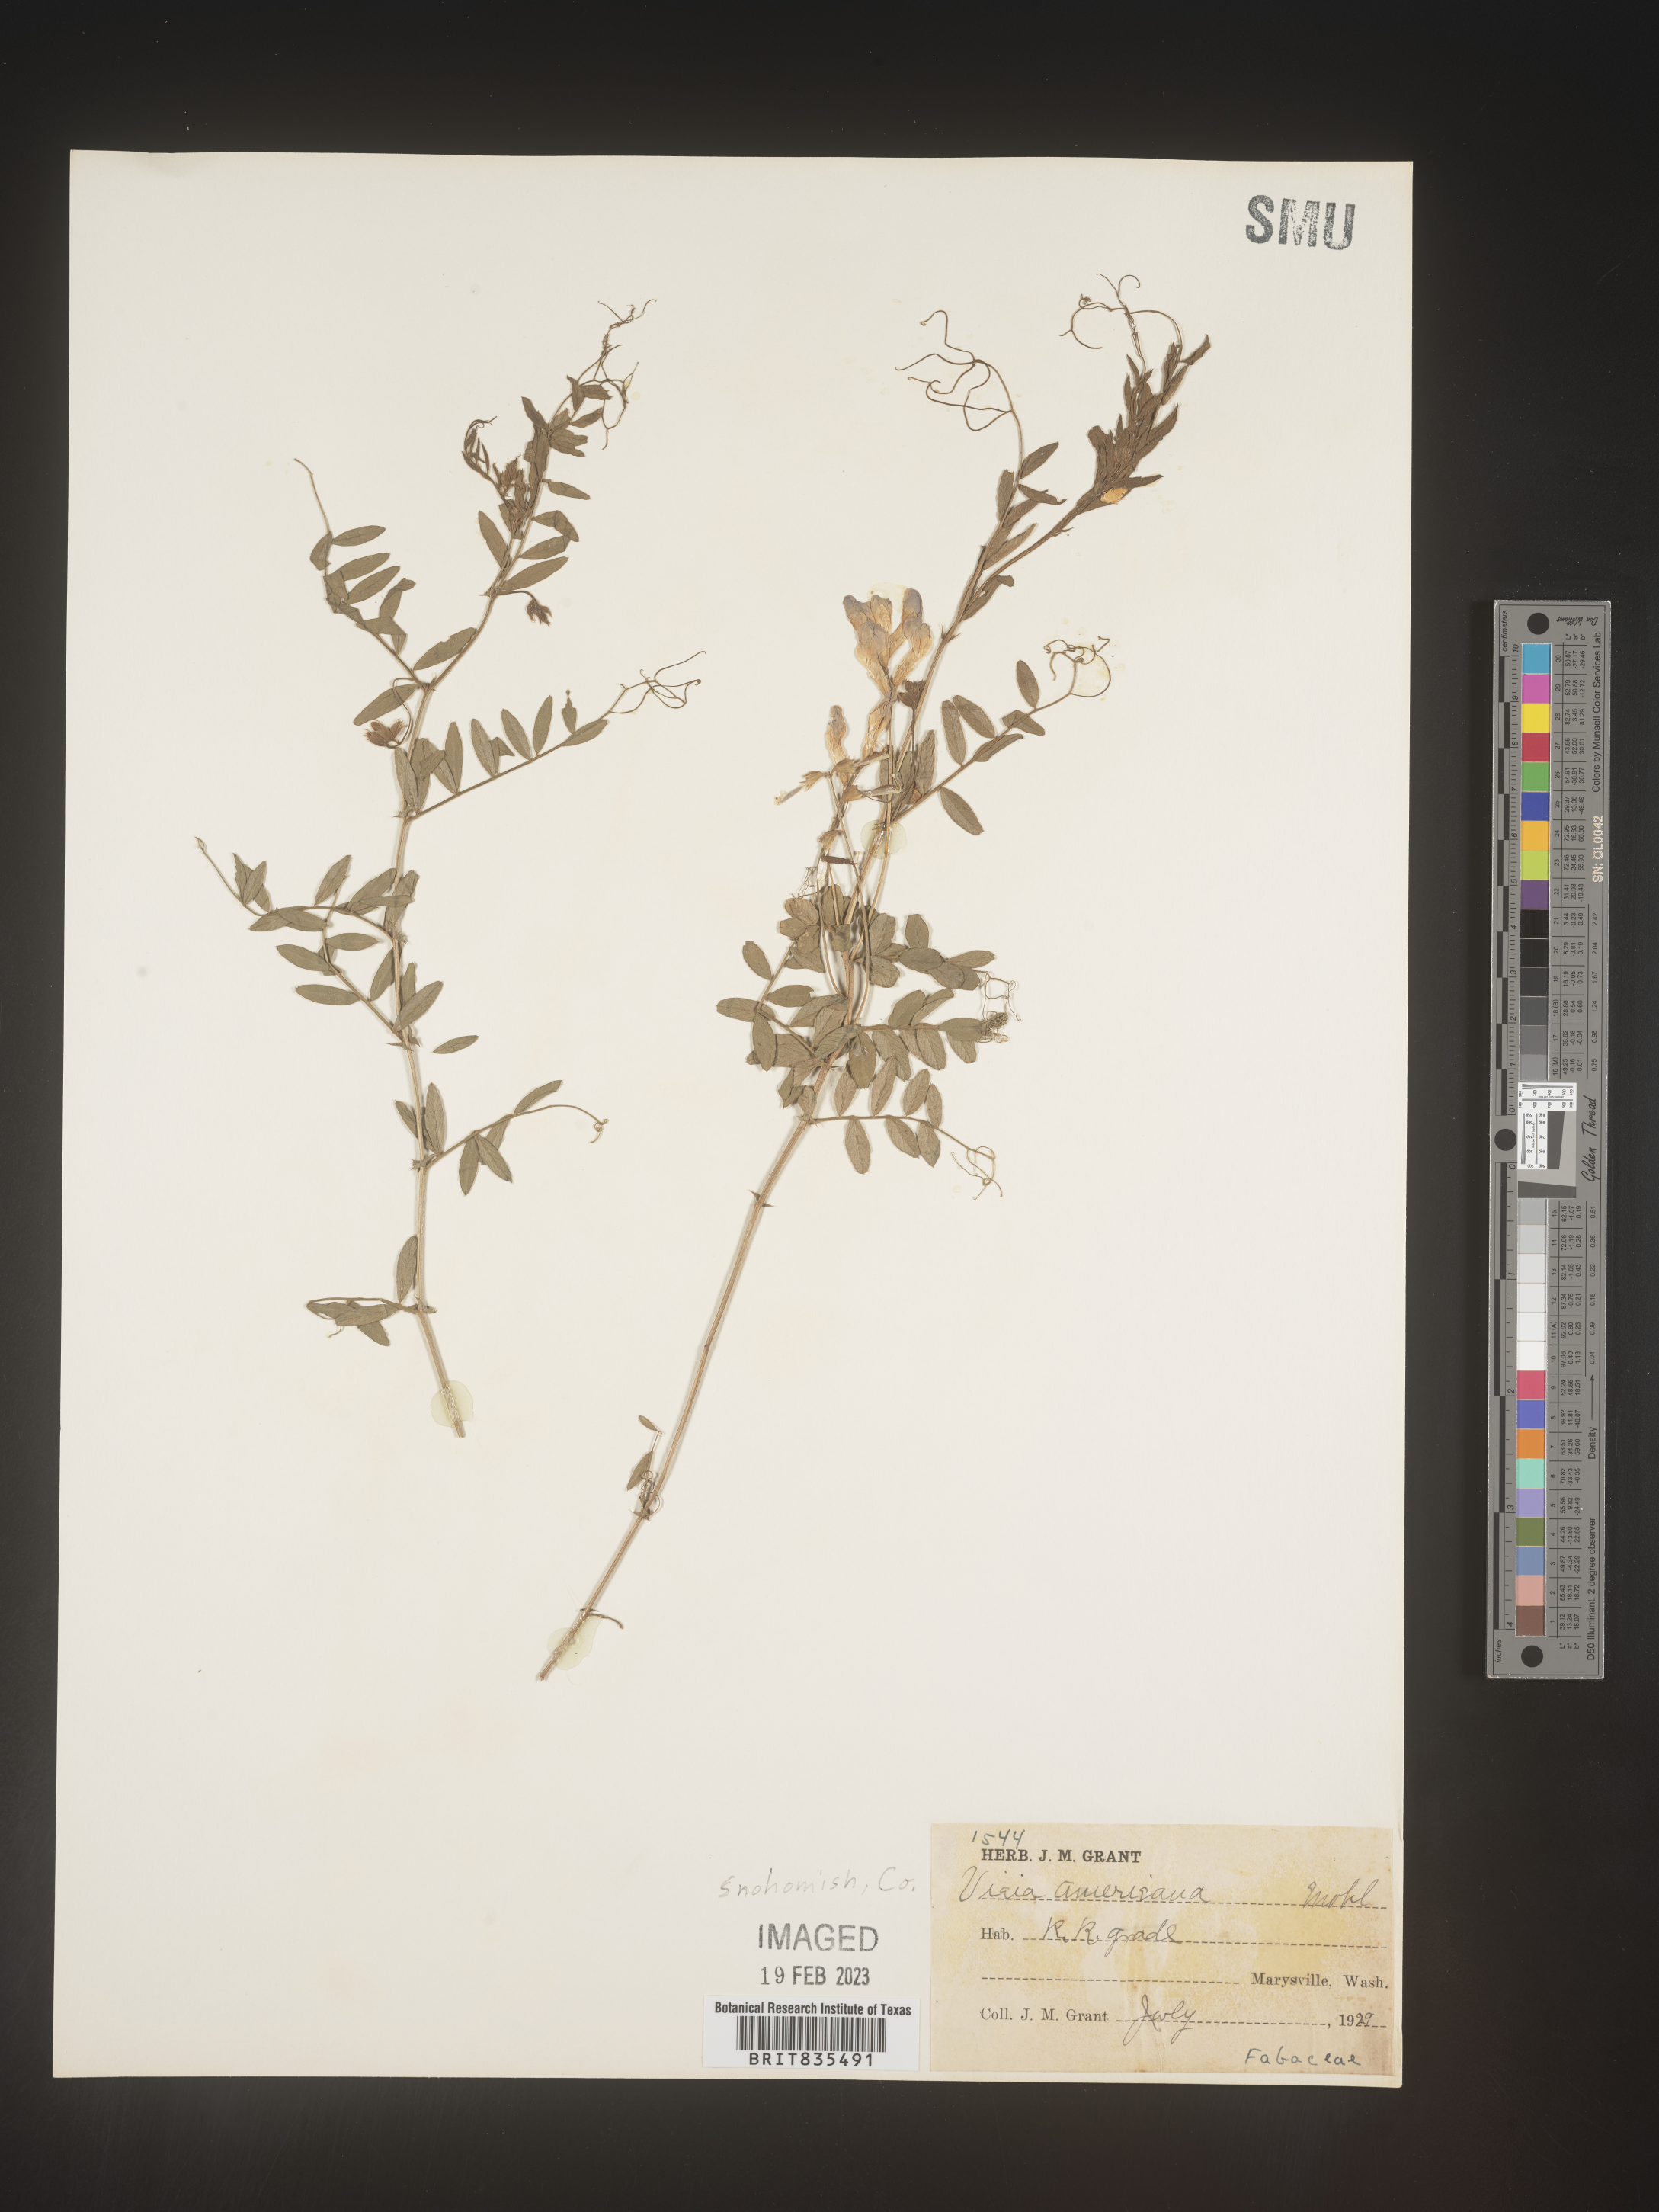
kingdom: Plantae
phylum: Tracheophyta
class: Magnoliopsida
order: Fabales
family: Fabaceae
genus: Vicia
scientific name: Vicia americana
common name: American vetch
